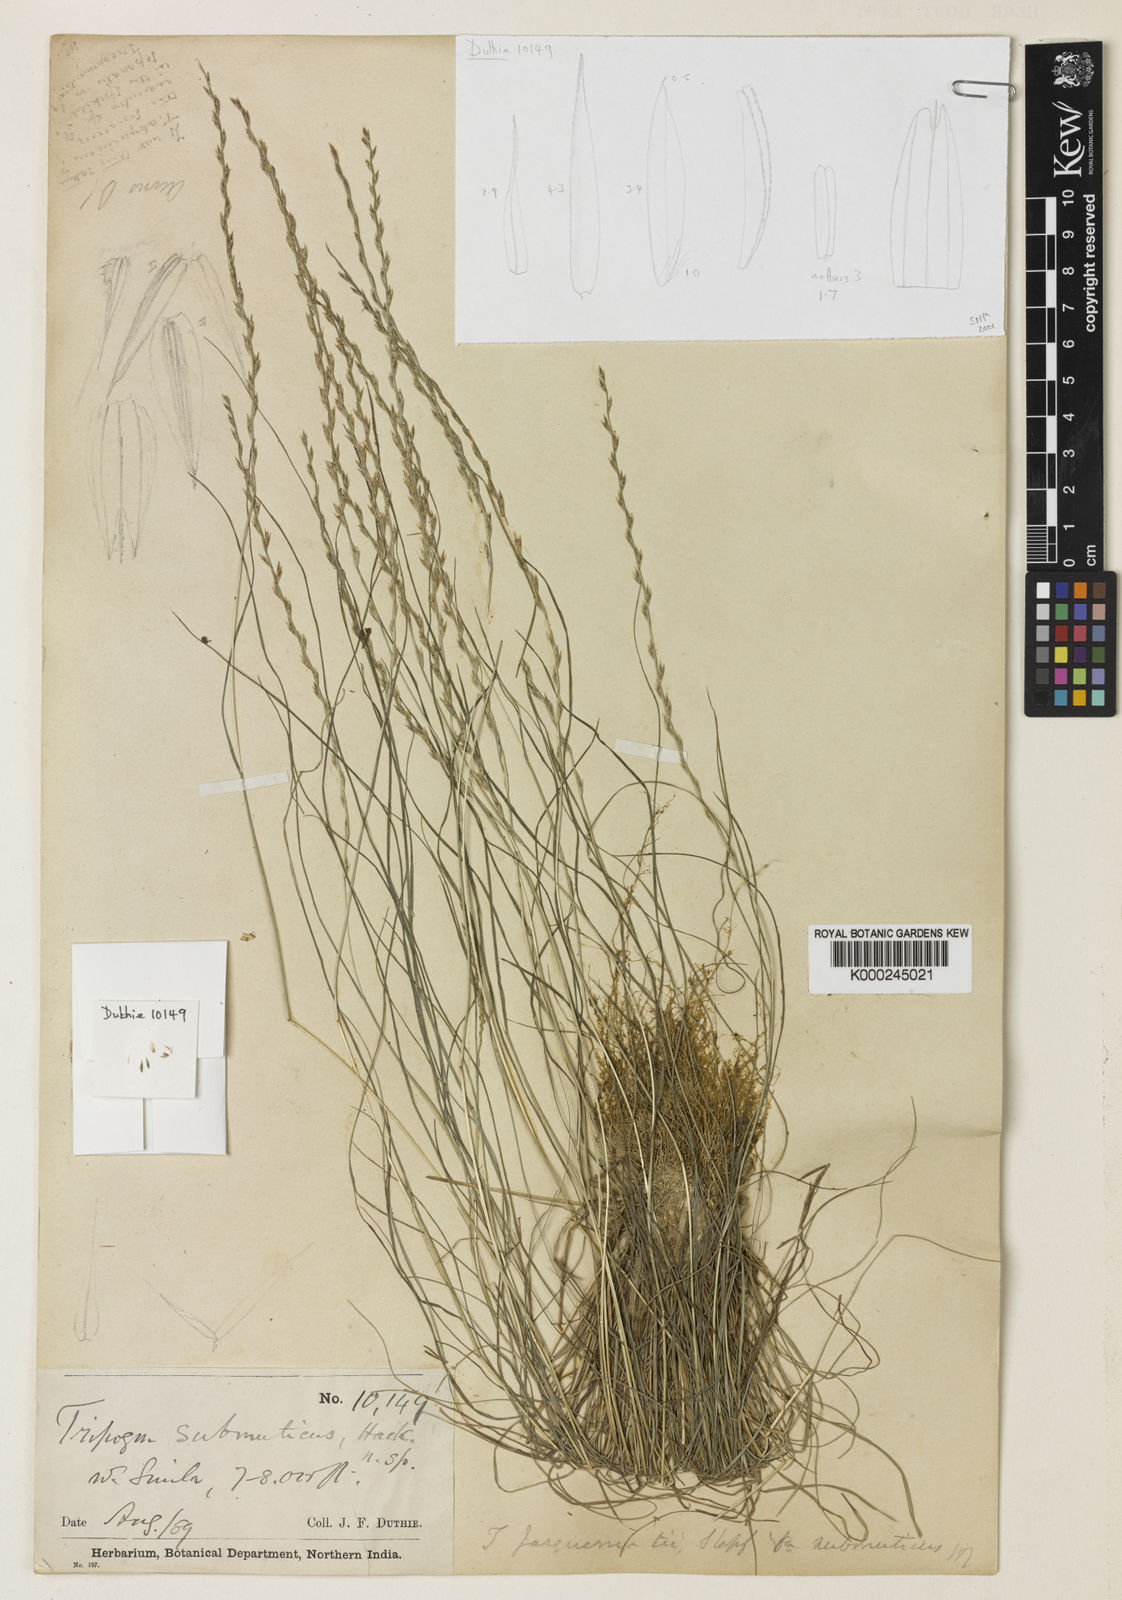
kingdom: Plantae
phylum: Tracheophyta
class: Liliopsida
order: Poales
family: Poaceae
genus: Tripogon
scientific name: Tripogon purpurascens
